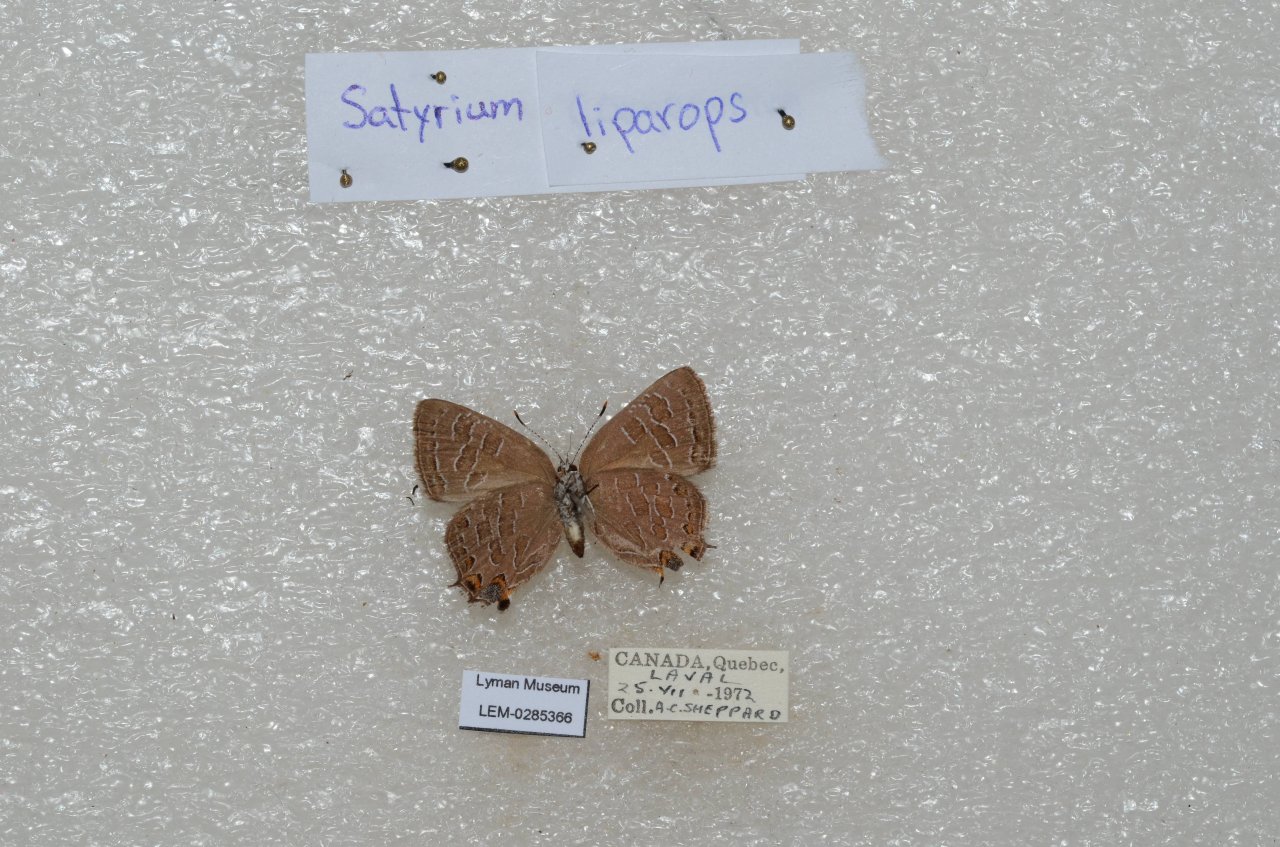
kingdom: Animalia
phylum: Arthropoda
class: Insecta
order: Lepidoptera
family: Lycaenidae
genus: Satyrium
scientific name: Satyrium liparops
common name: Striped Hairstreak
